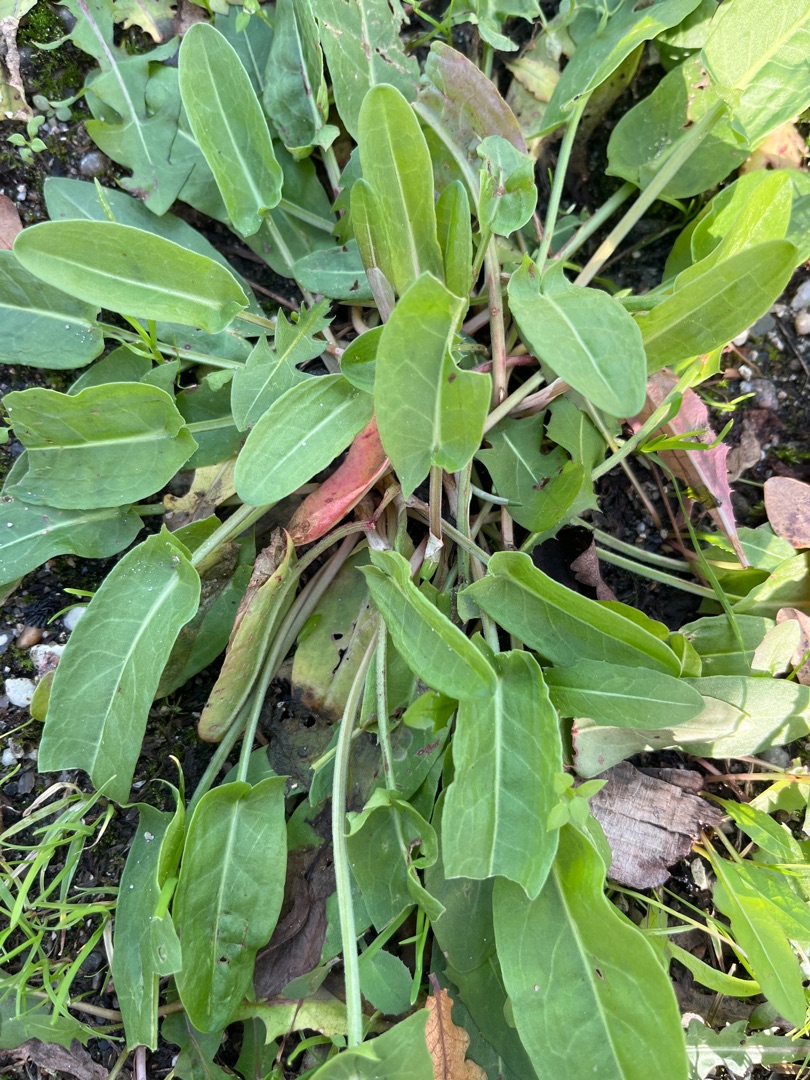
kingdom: Plantae
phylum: Tracheophyta
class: Magnoliopsida
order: Caryophyllales
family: Polygonaceae
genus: Rumex
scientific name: Rumex
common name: Skræppeslægten
